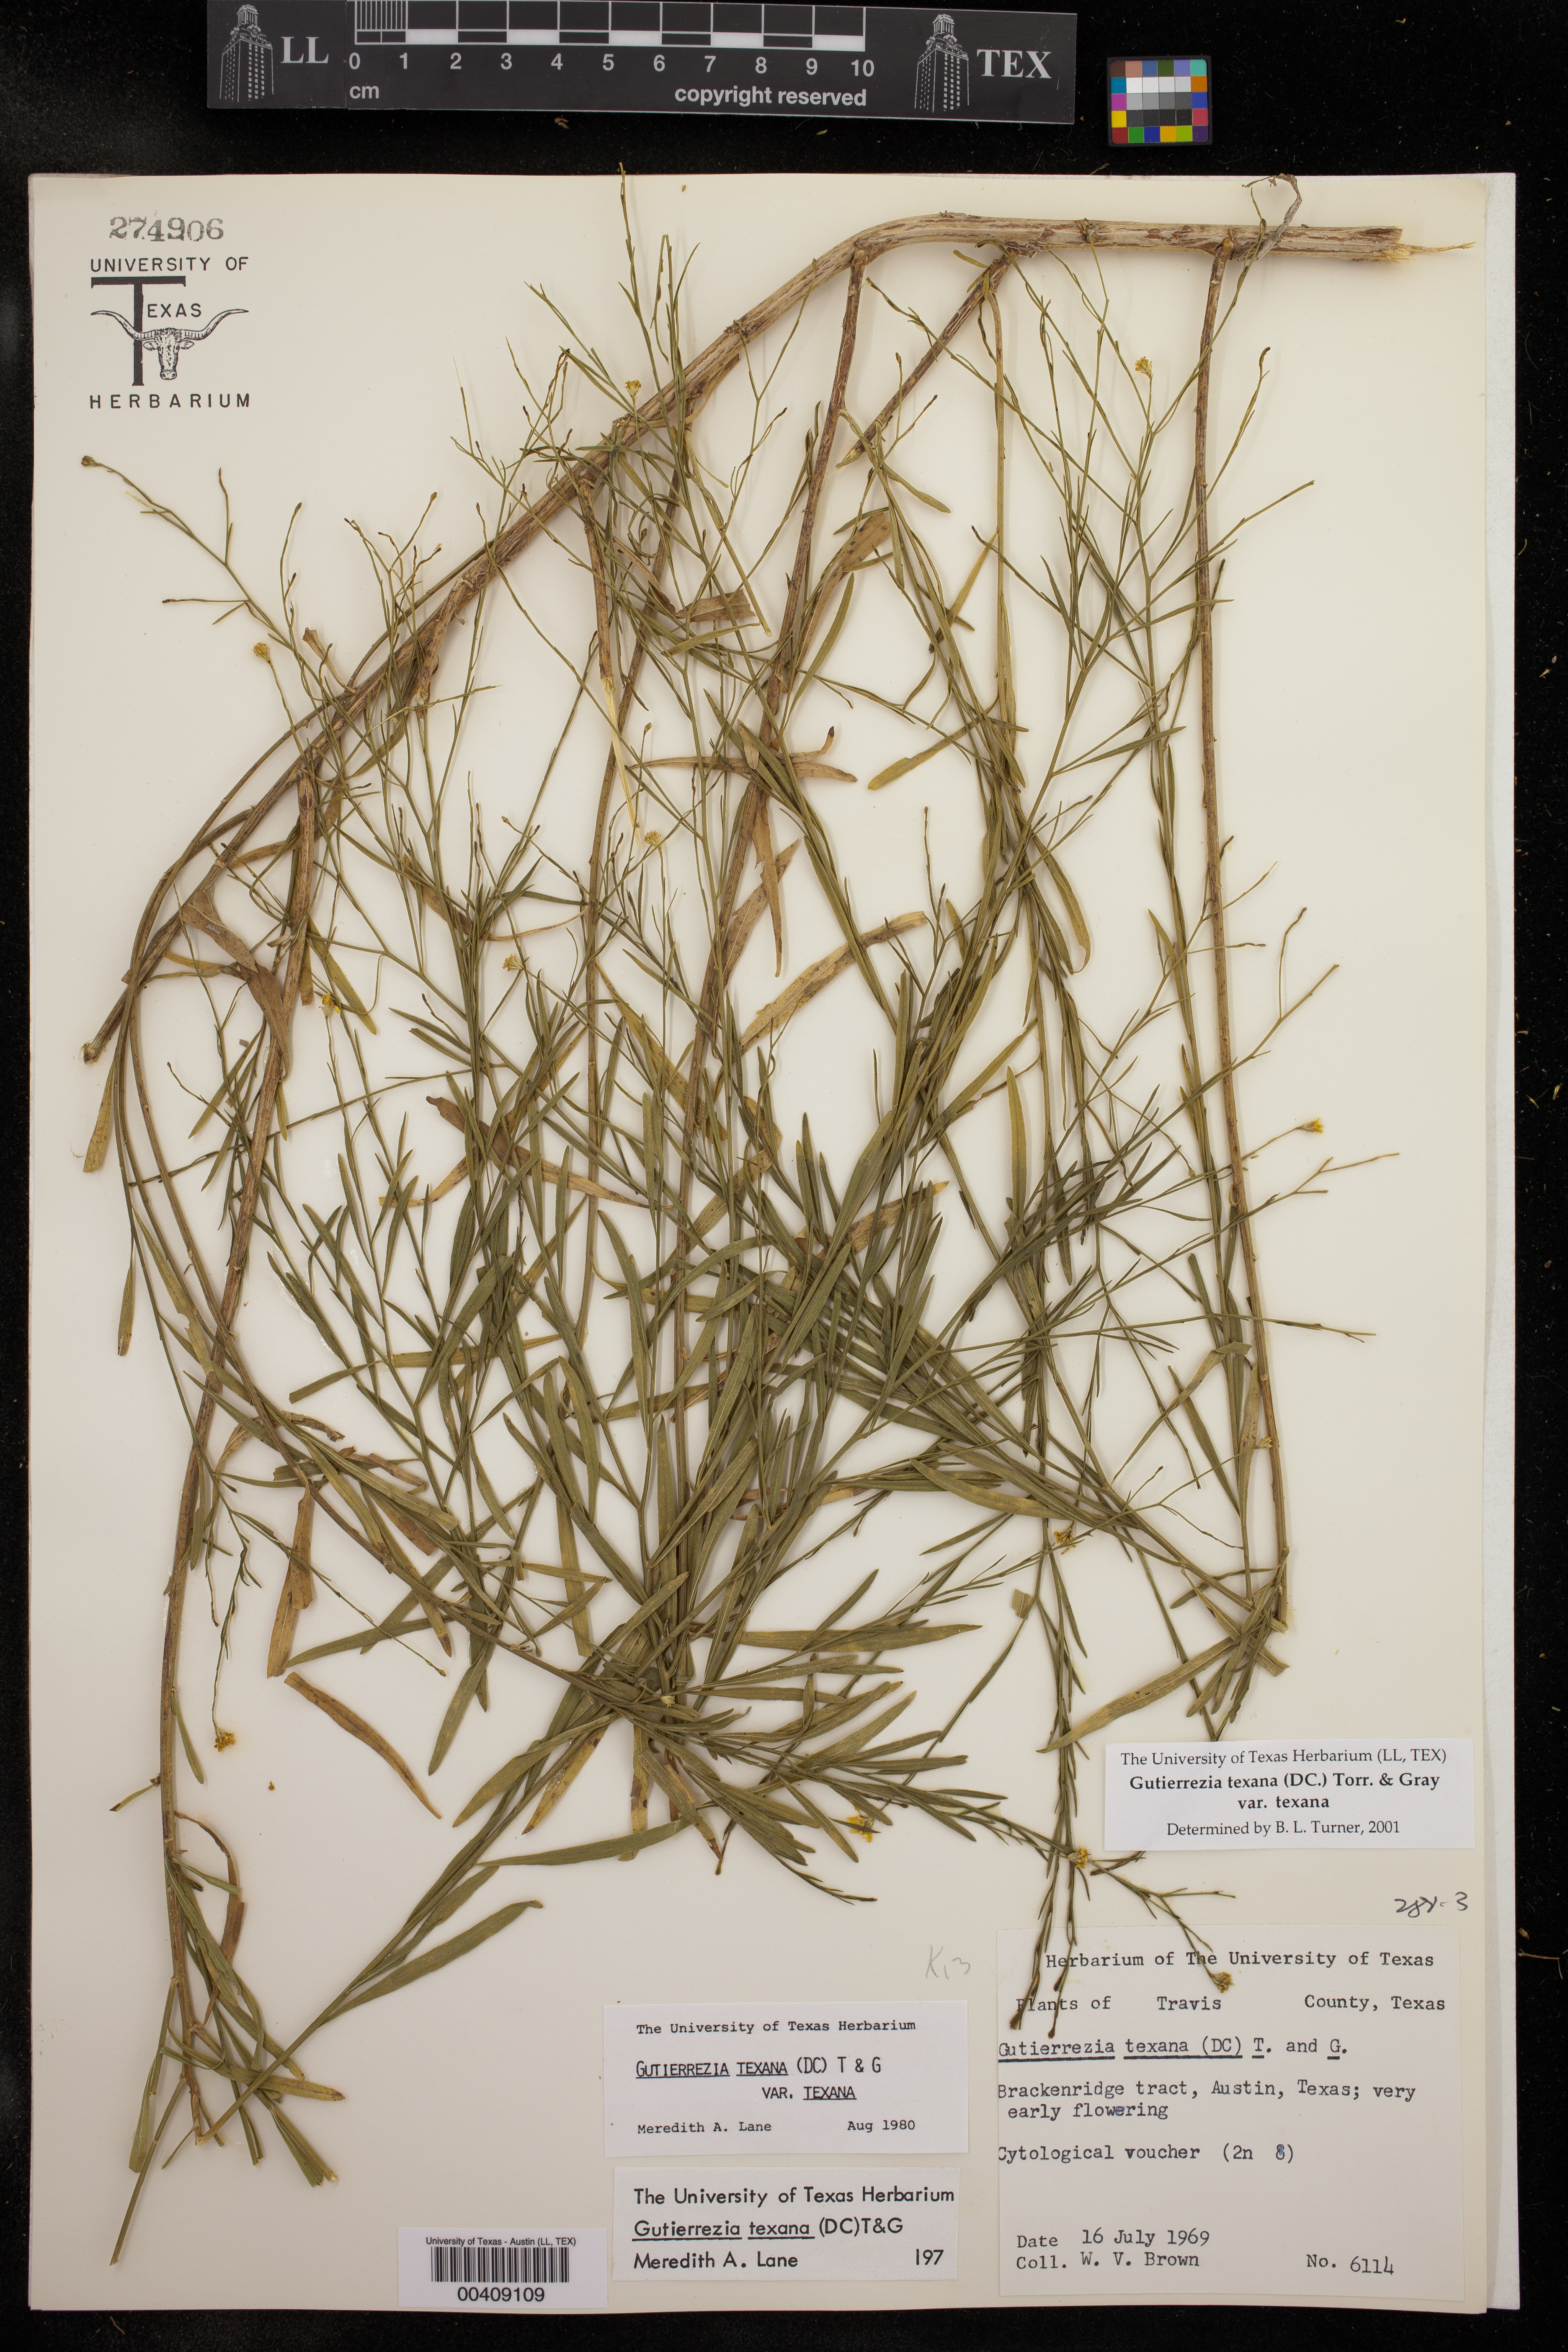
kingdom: Plantae
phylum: Tracheophyta
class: Magnoliopsida
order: Asterales
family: Asteraceae
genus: Gutierrezia
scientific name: Gutierrezia texana
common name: Texas snakeweed
